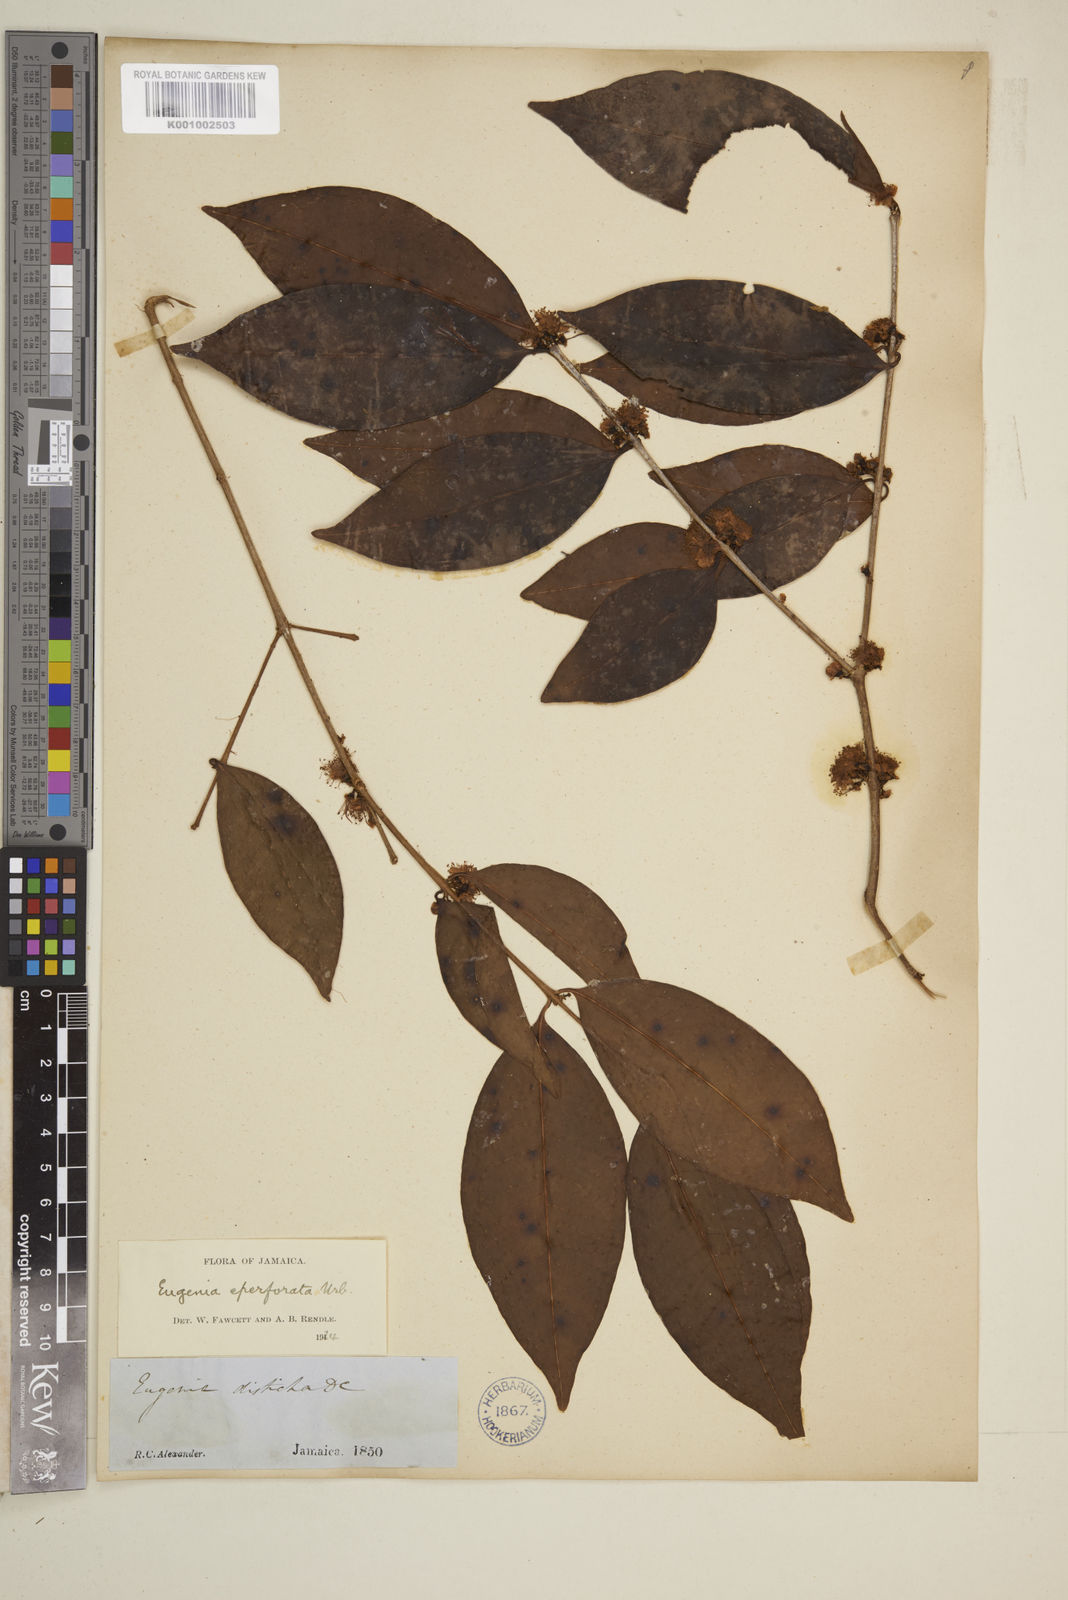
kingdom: Plantae
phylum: Tracheophyta
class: Magnoliopsida
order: Myrtales
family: Myrtaceae
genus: Eugenia
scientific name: Eugenia eperforata
